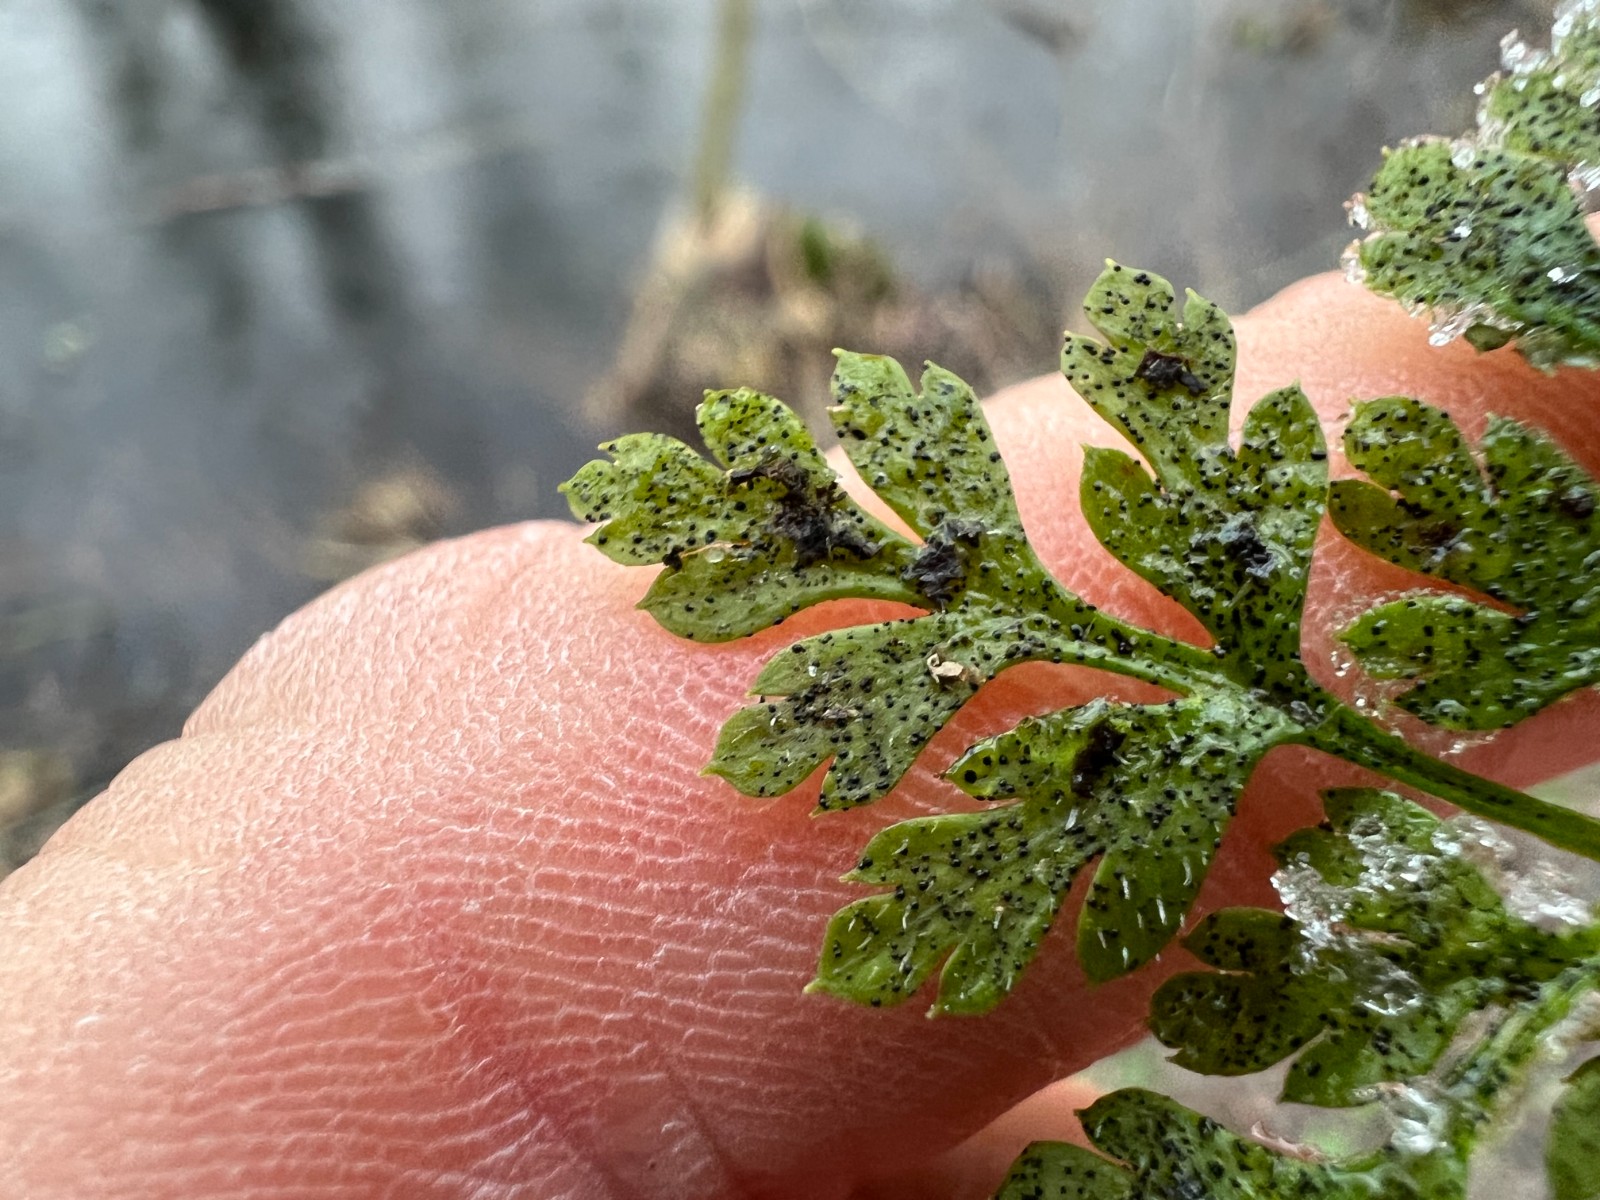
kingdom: Fungi
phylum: Ascomycota
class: Dothideomycetes
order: Venturiales
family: Venturiaceae
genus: Coleroa
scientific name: Coleroa robertiani
